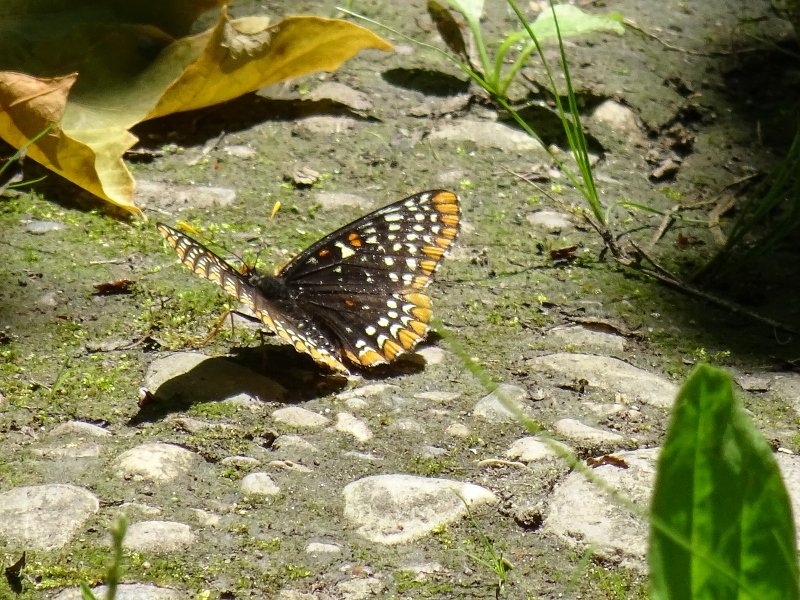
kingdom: Animalia
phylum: Arthropoda
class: Insecta
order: Lepidoptera
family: Nymphalidae
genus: Euphydryas
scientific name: Euphydryas phaeton
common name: Baltimore Checkerspot
